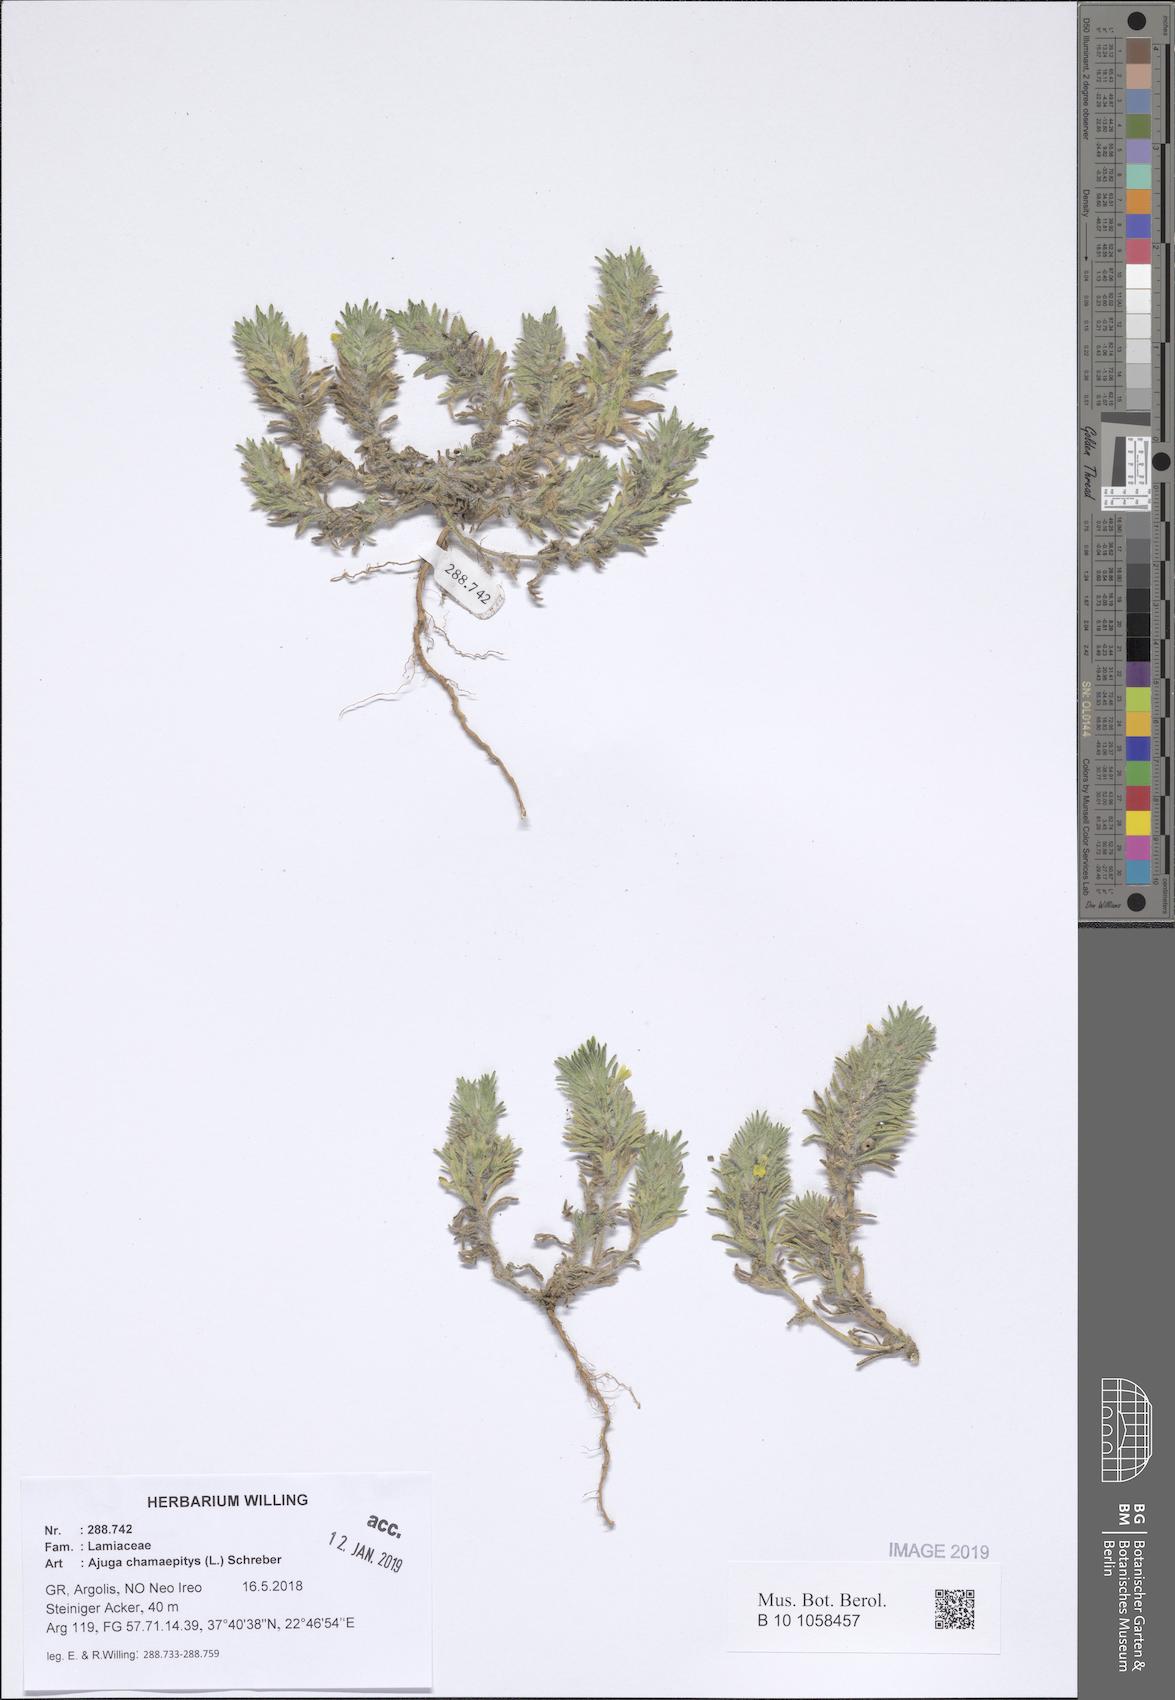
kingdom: Plantae
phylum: Tracheophyta
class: Magnoliopsida
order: Lamiales
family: Lamiaceae
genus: Ajuga
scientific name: Ajuga chamaepitys
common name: Ground-pine
